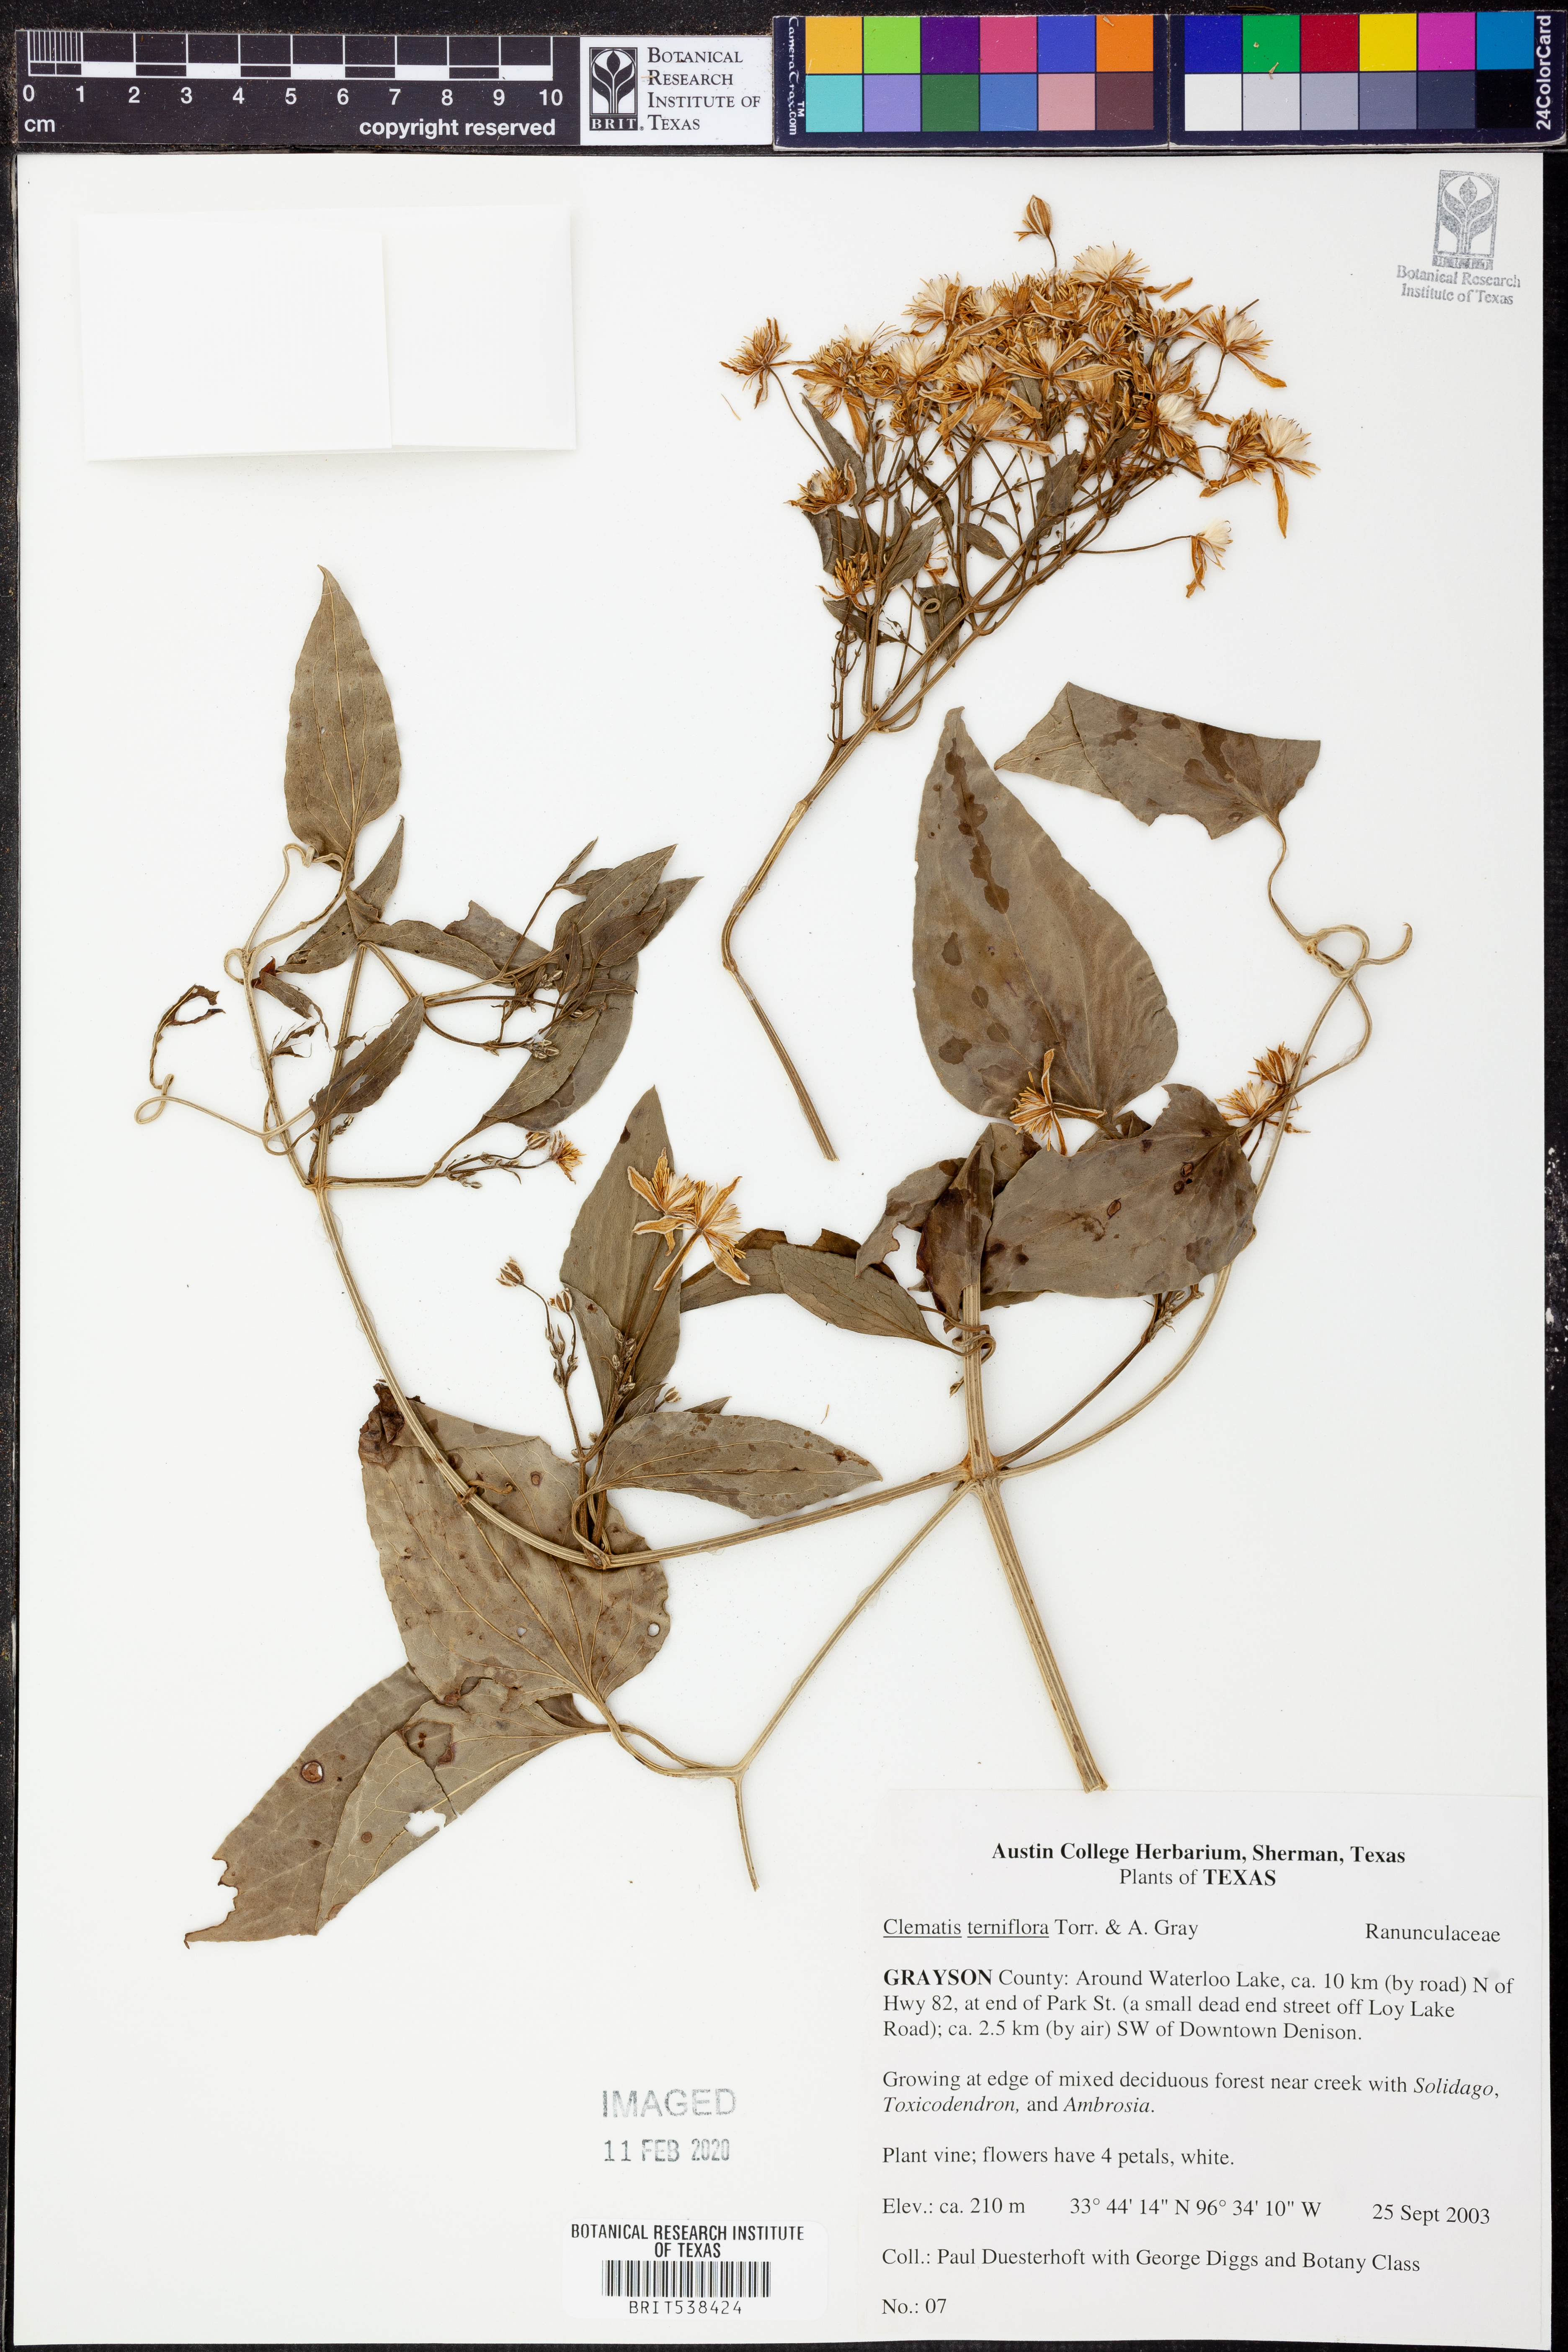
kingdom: Plantae
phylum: Tracheophyta
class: Magnoliopsida
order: Ranunculales
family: Ranunculaceae
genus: Clematis
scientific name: Clematis terniflora
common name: Sweet autumn clematis
